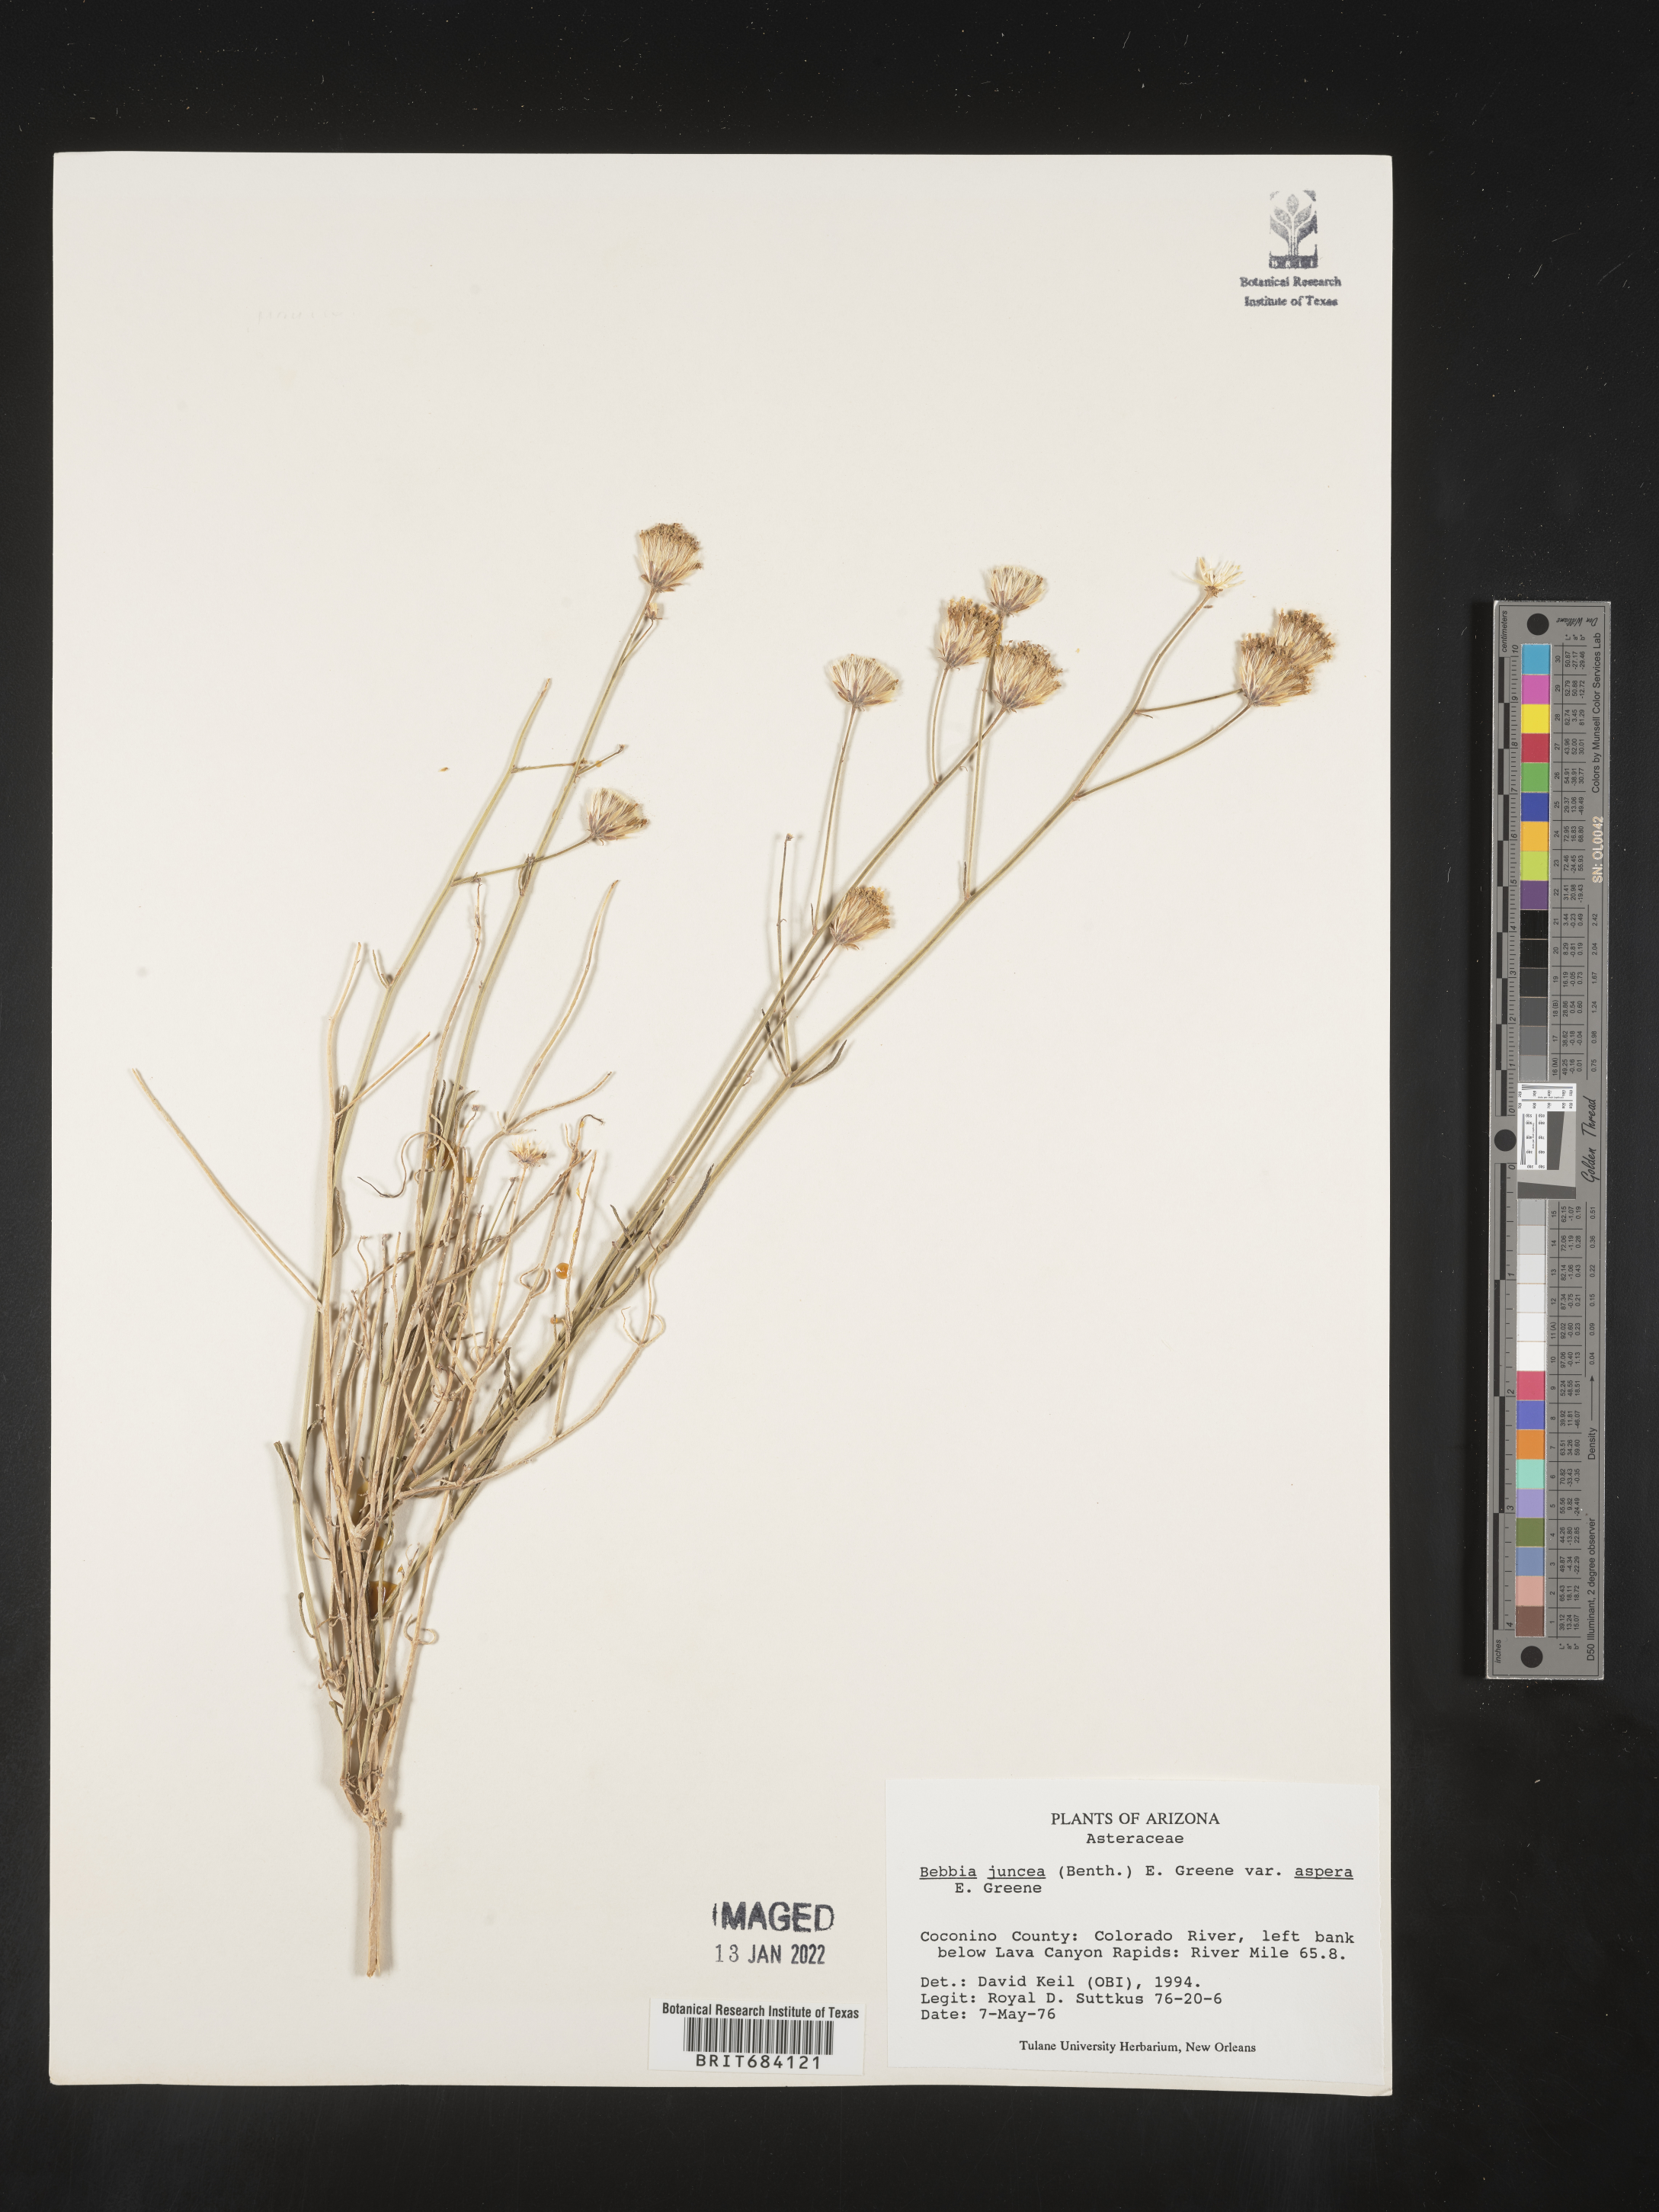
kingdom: Plantae
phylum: Tracheophyta
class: Magnoliopsida
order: Asterales
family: Asteraceae
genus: Bebbia
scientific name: Bebbia
